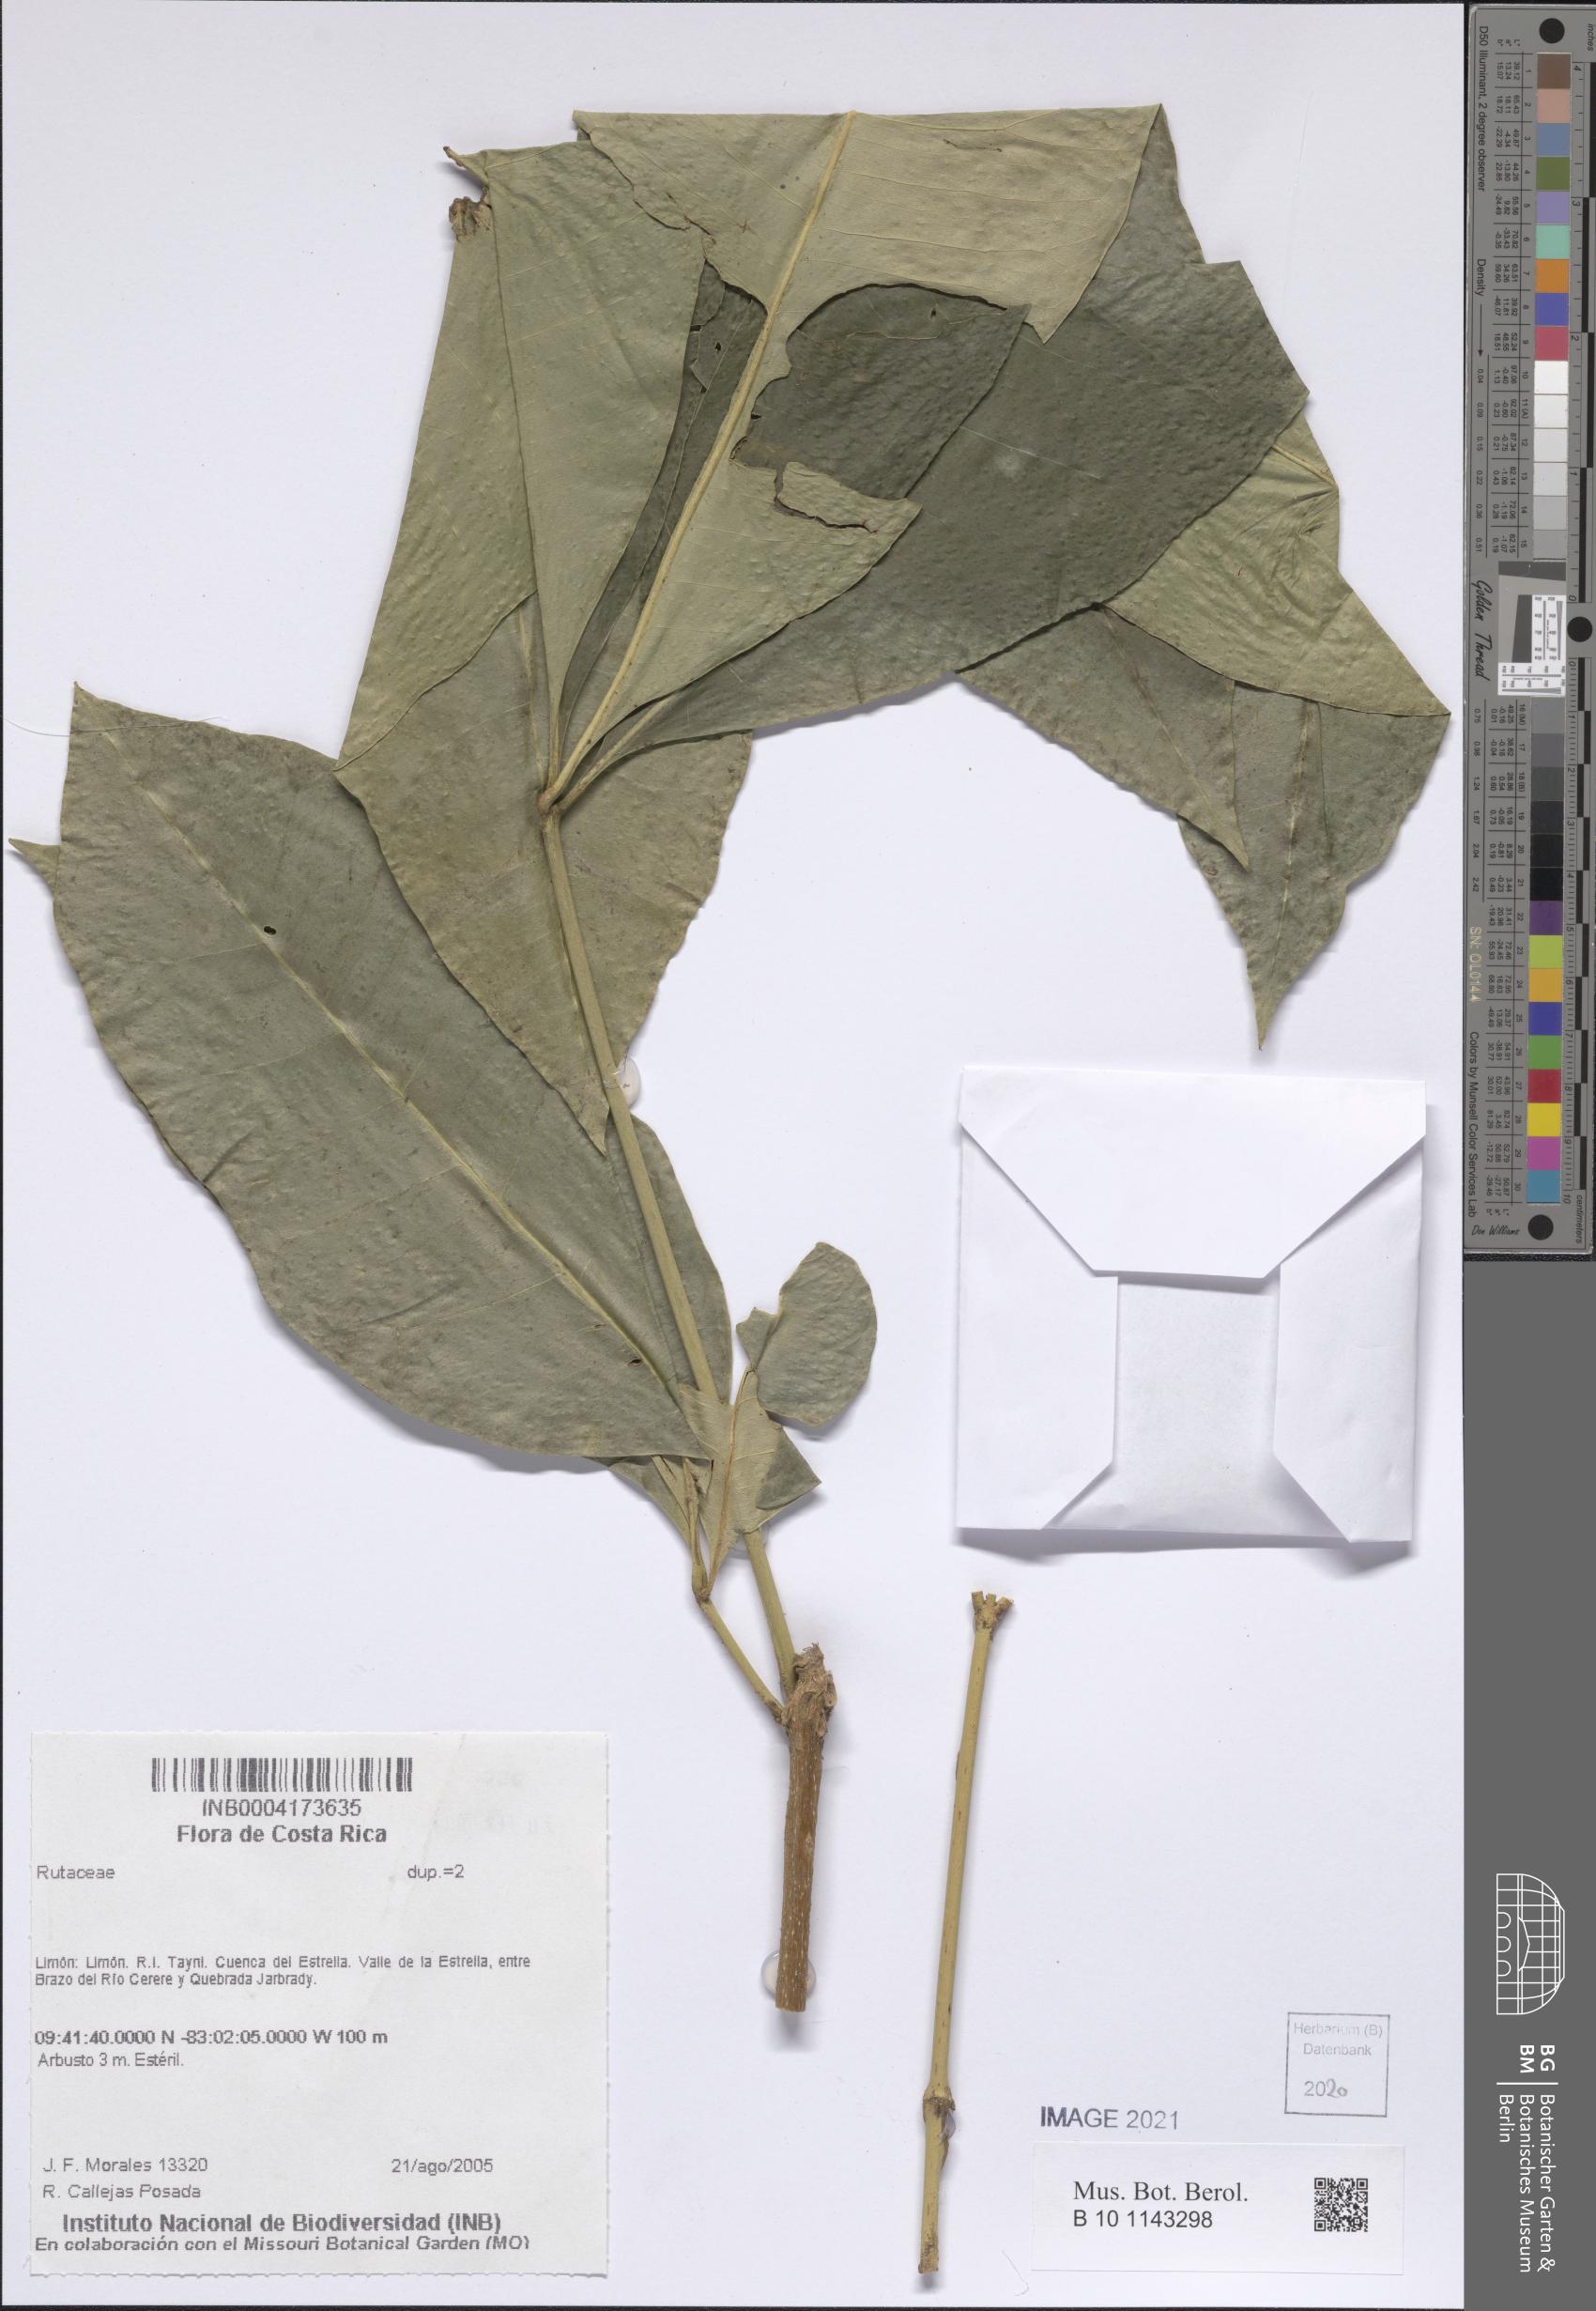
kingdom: Plantae
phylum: Tracheophyta
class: Magnoliopsida
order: Sapindales
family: Rutaceae
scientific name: Rutaceae
